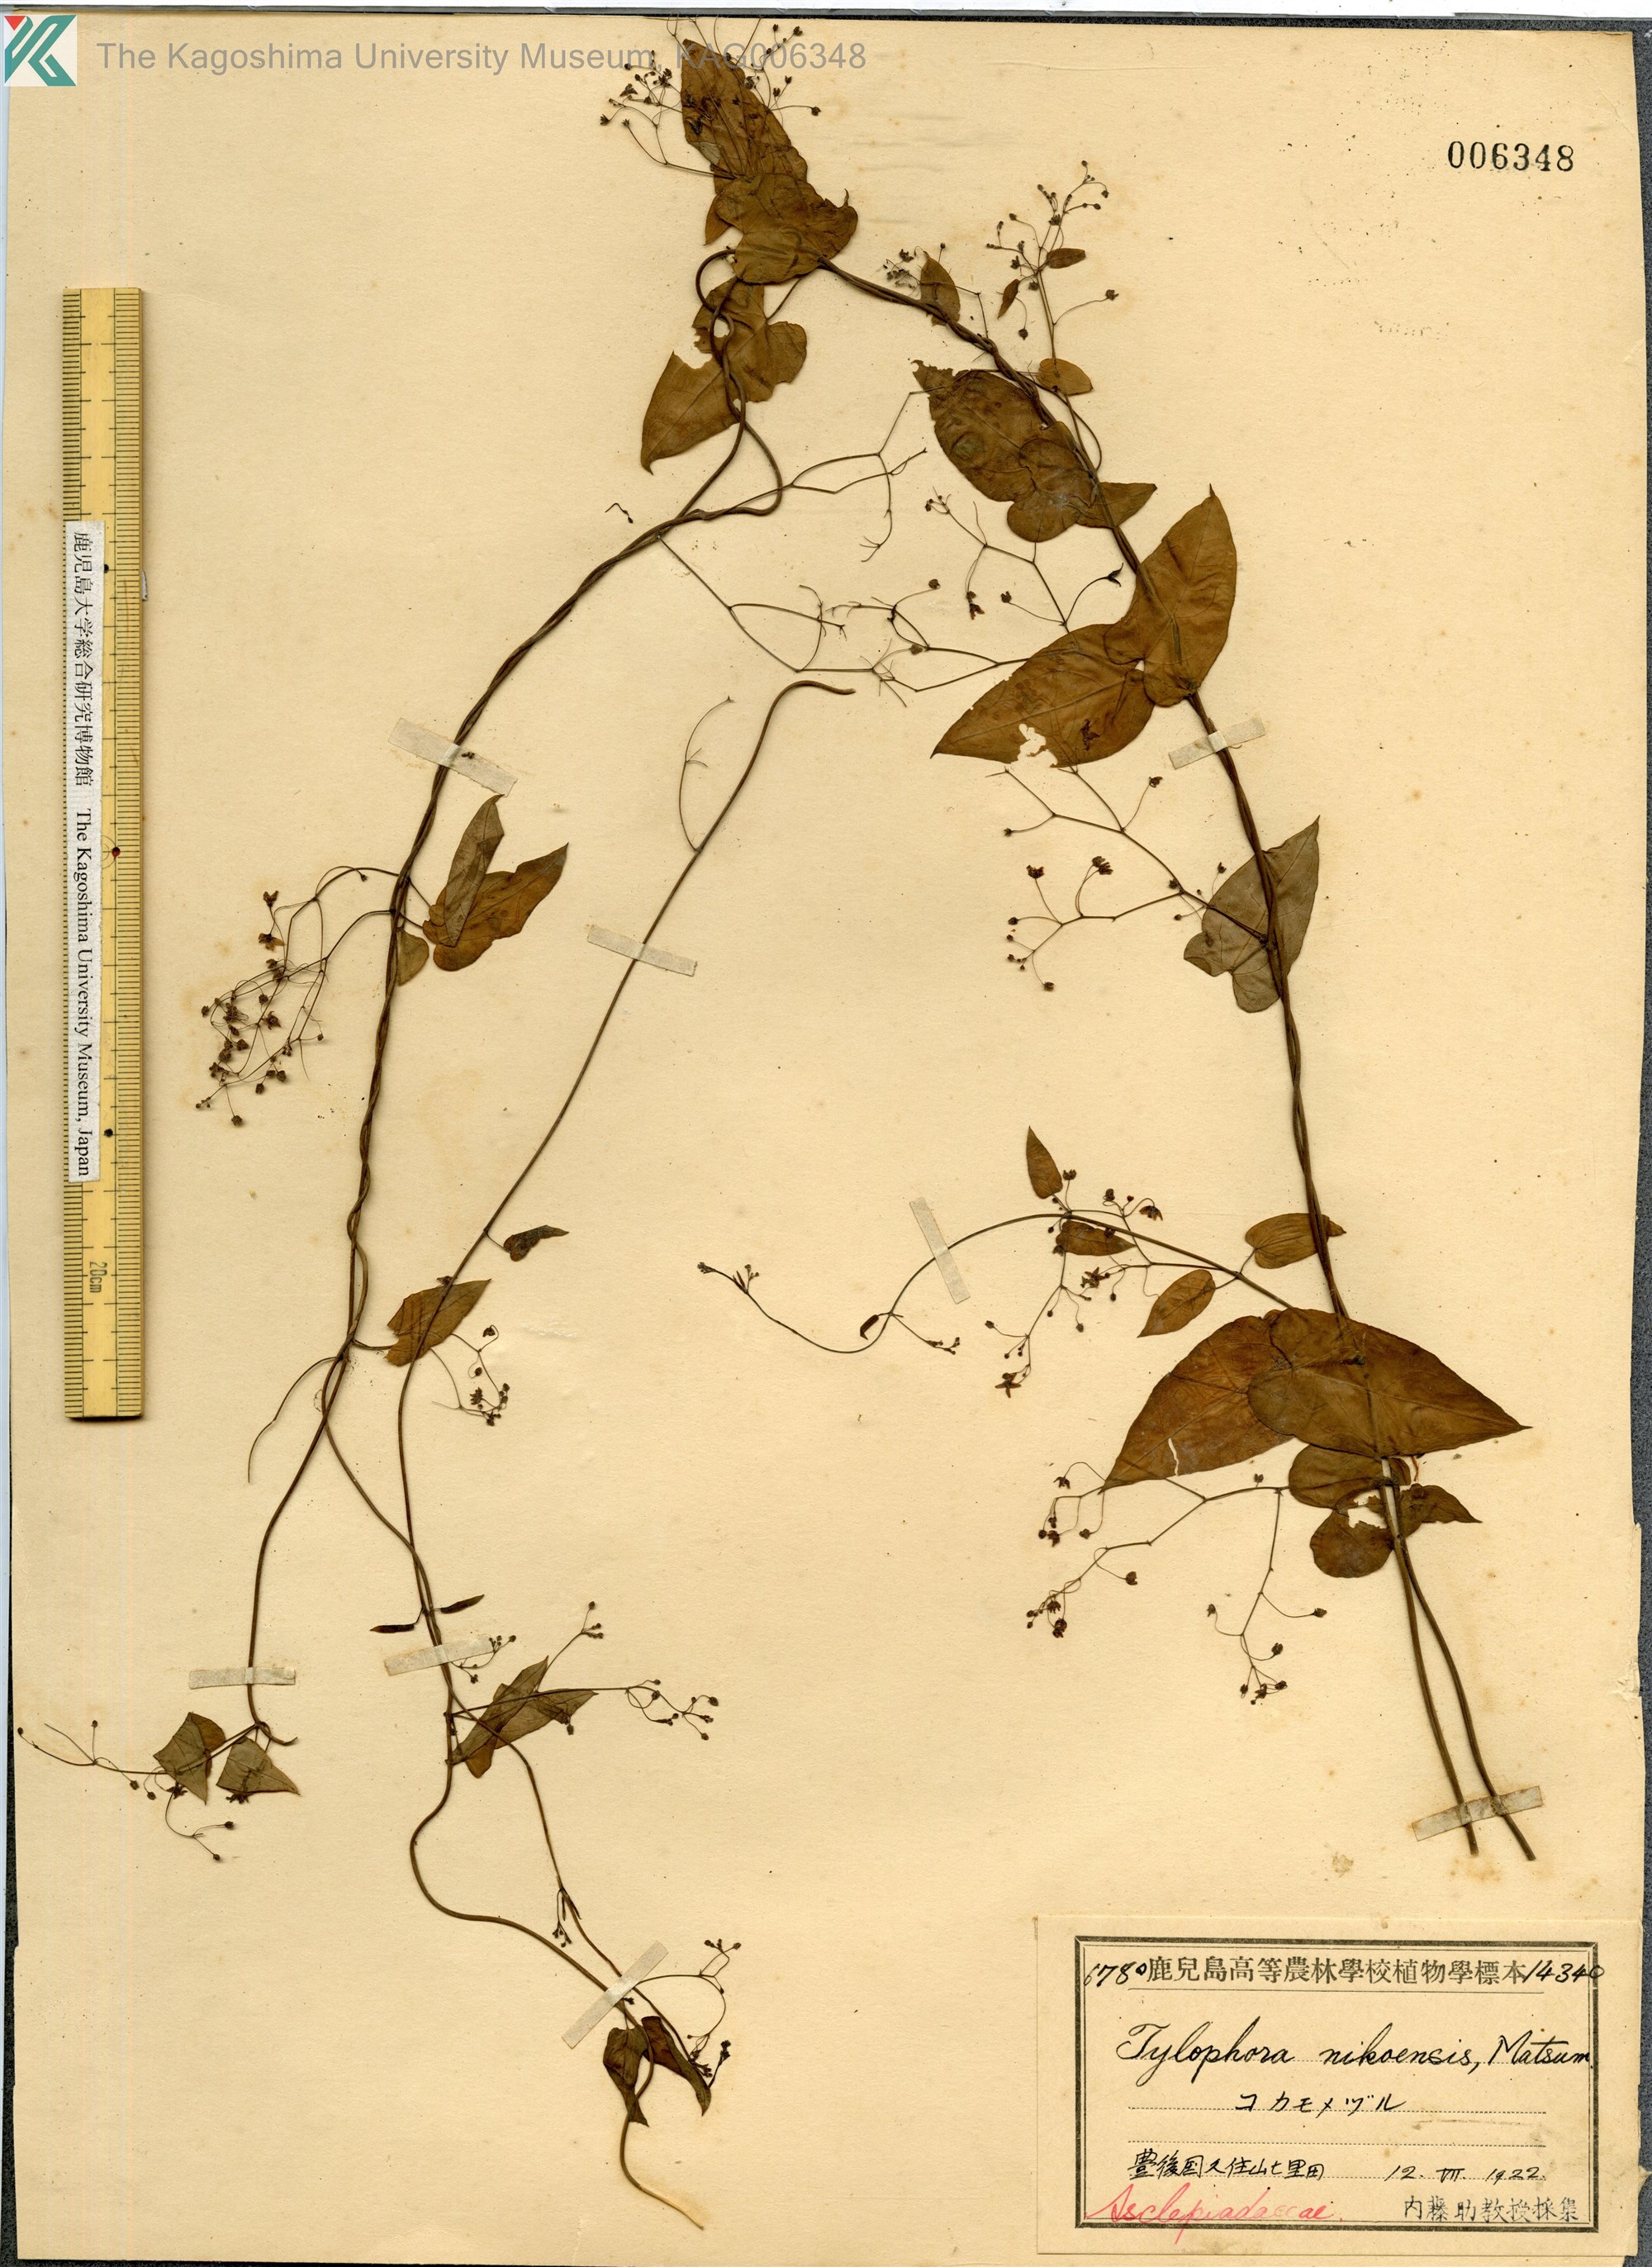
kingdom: Plantae
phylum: Tracheophyta
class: Magnoliopsida
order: Gentianales
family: Apocynaceae
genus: Vincetoxicum
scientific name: Vincetoxicum nikoense
